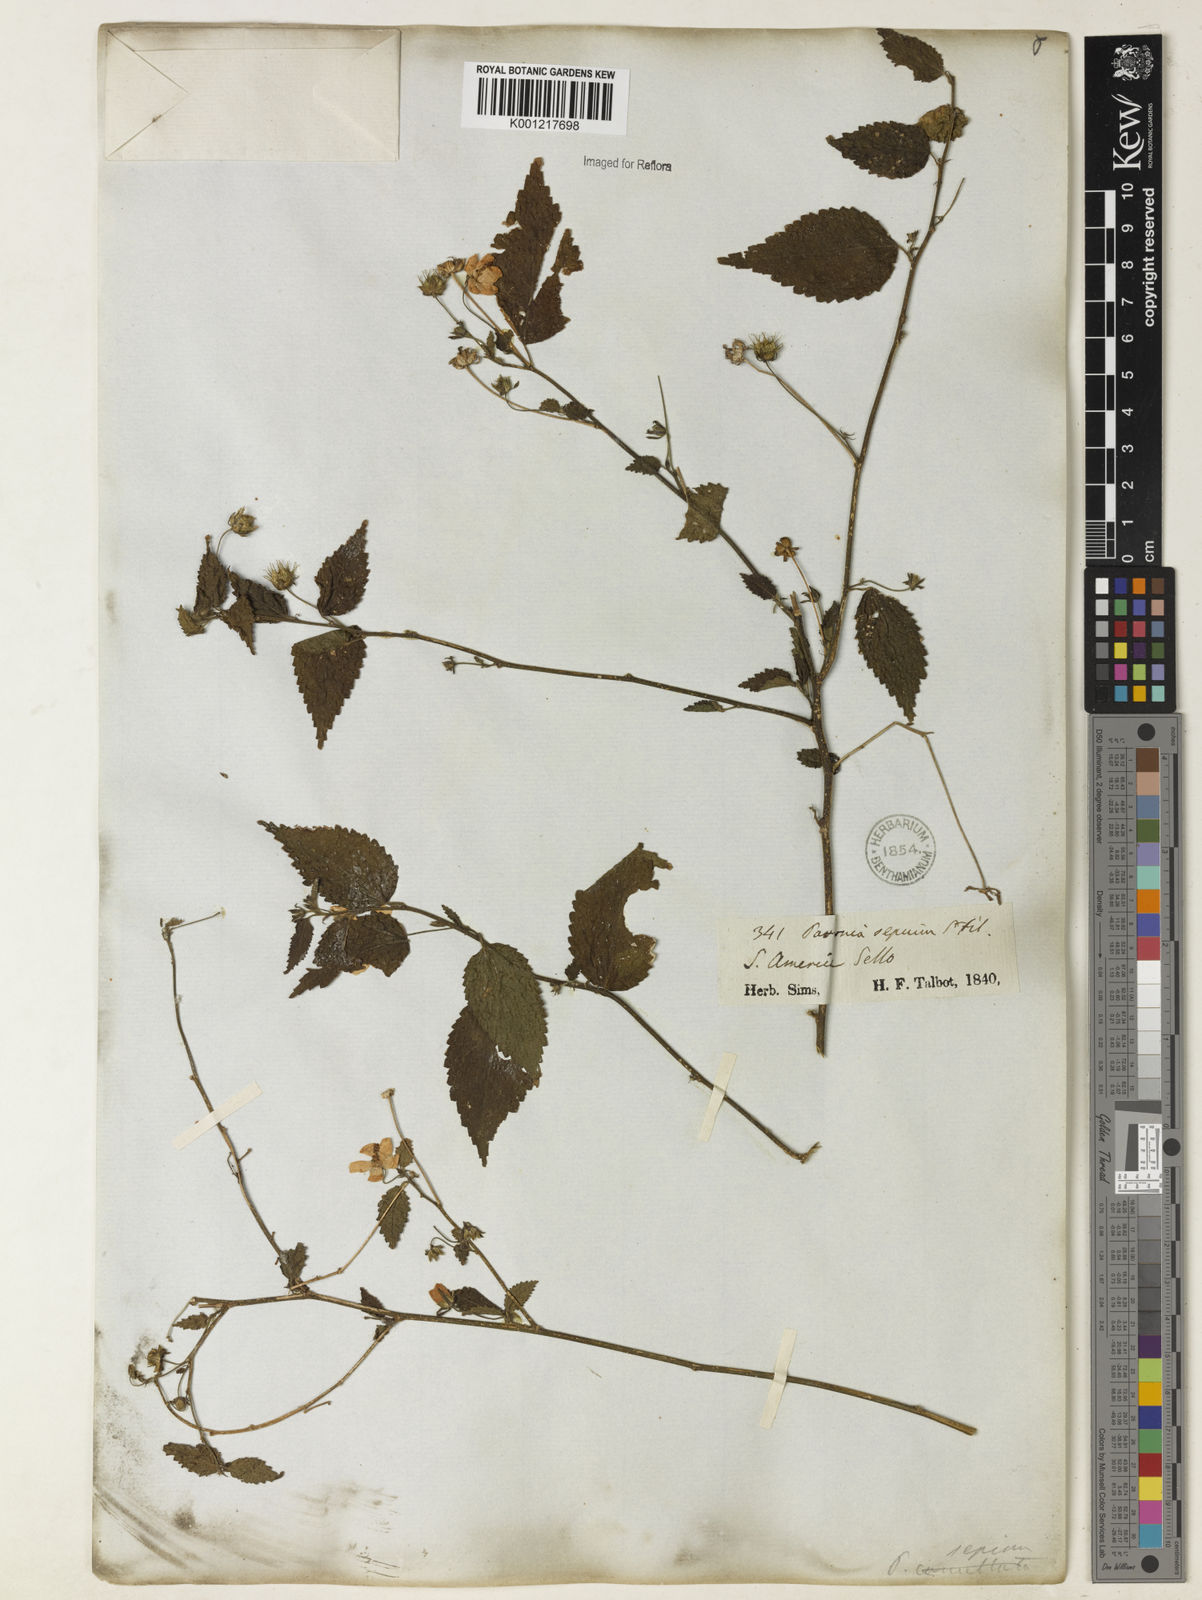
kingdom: Plantae
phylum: Tracheophyta
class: Magnoliopsida
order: Malvales
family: Malvaceae
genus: Pavonia
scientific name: Pavonia sepium
